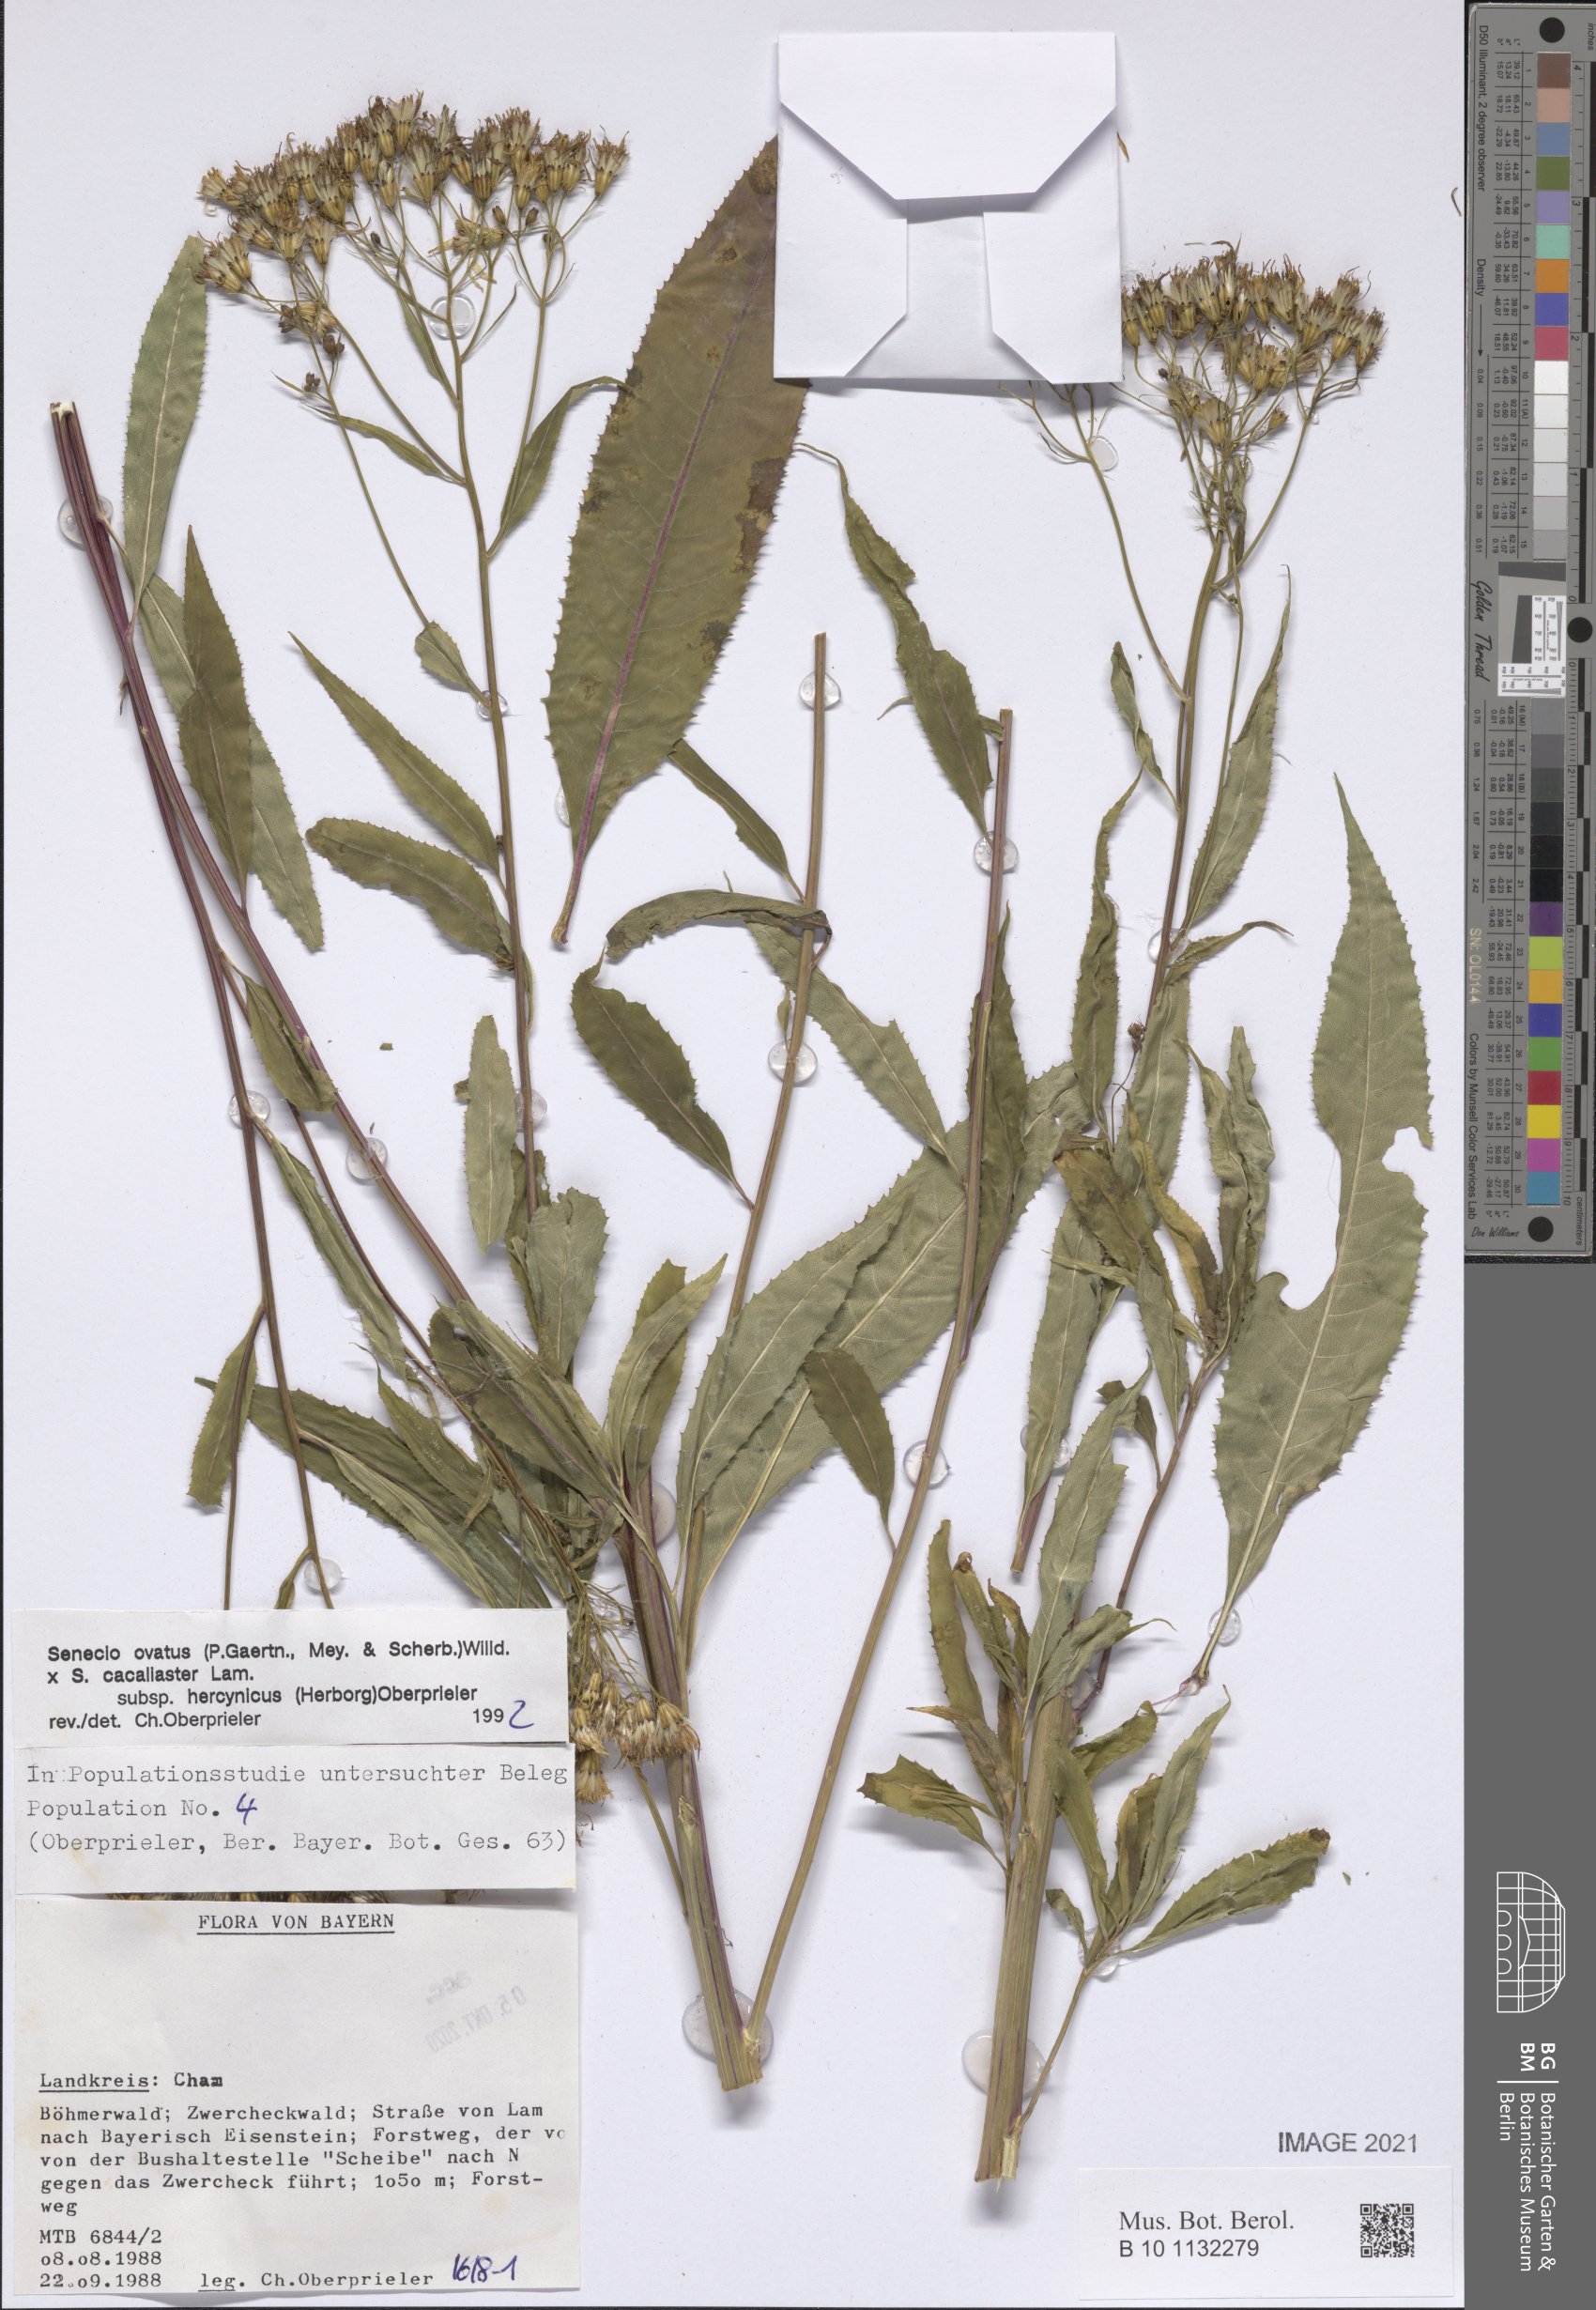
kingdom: Plantae
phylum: Tracheophyta
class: Magnoliopsida
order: Asterales
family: Asteraceae
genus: Senecio
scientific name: Senecio ovatus
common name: Wood ragwort
